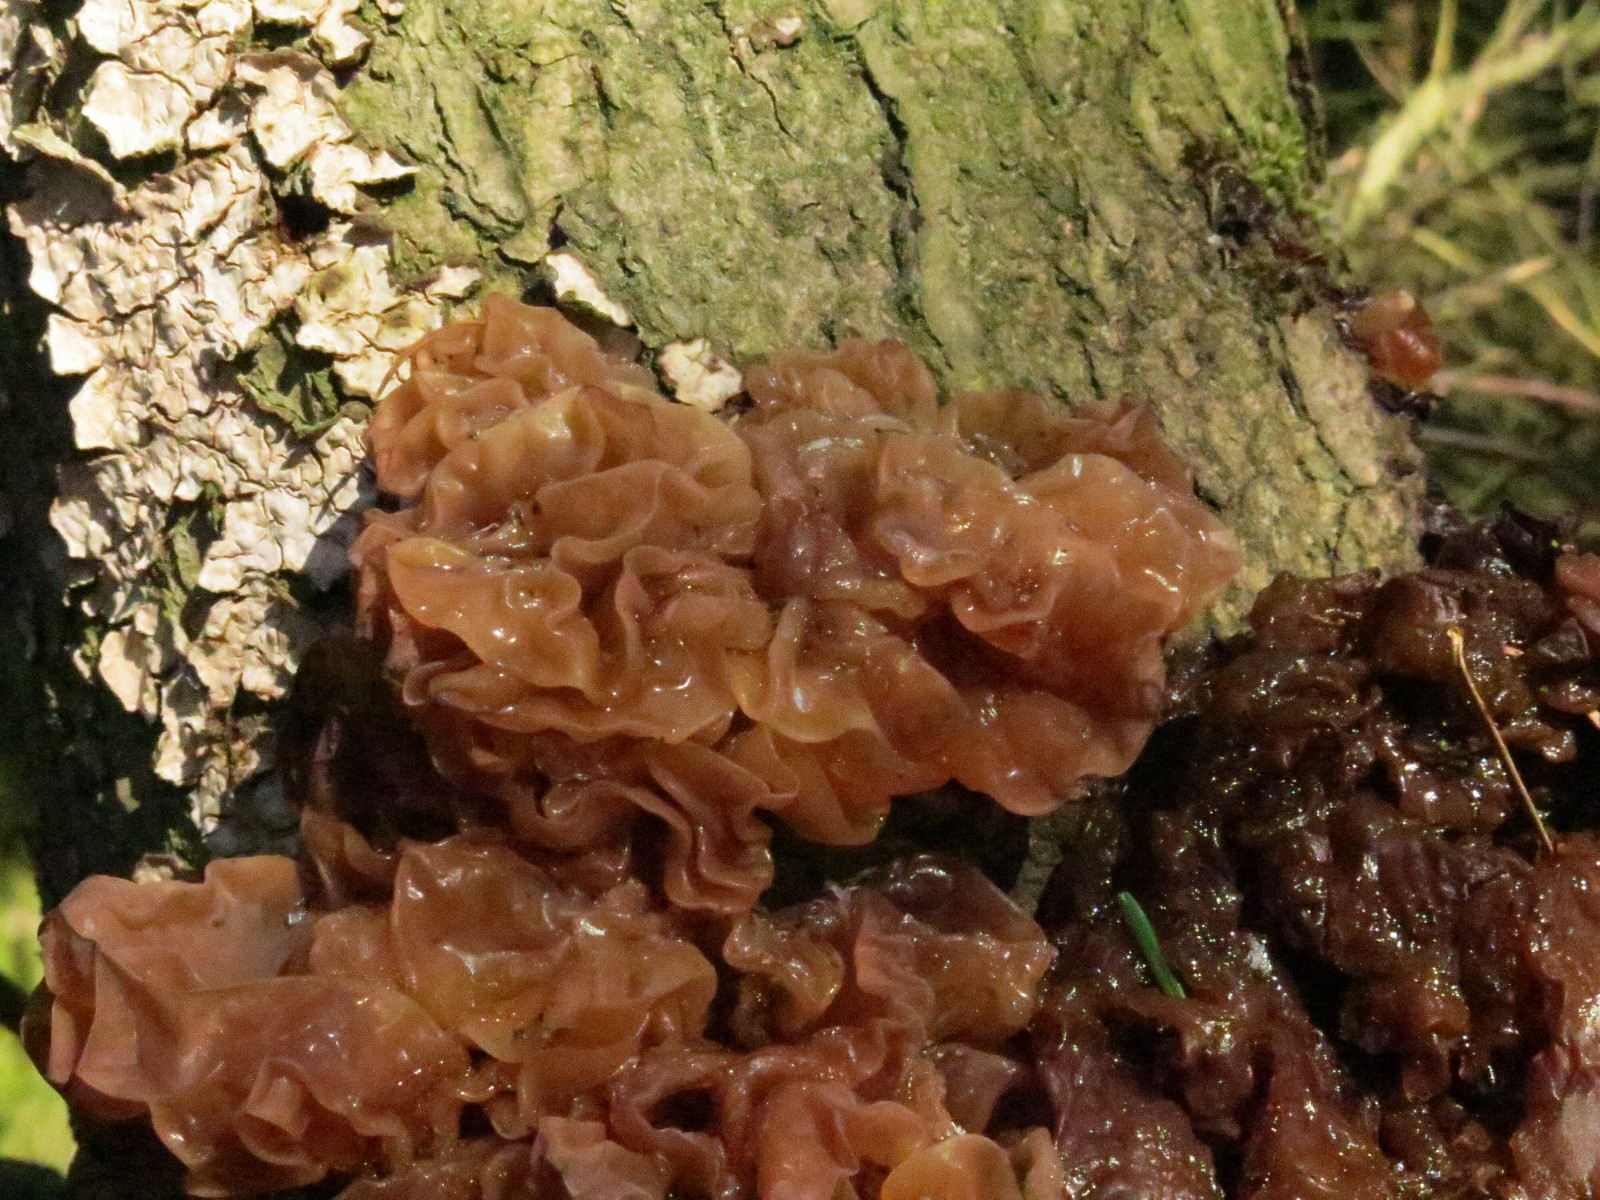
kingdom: Fungi
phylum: Basidiomycota
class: Tremellomycetes
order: Tremellales
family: Tremellaceae
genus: Phaeotremella
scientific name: Phaeotremella frondosa
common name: kæmpe-bævresvamp
